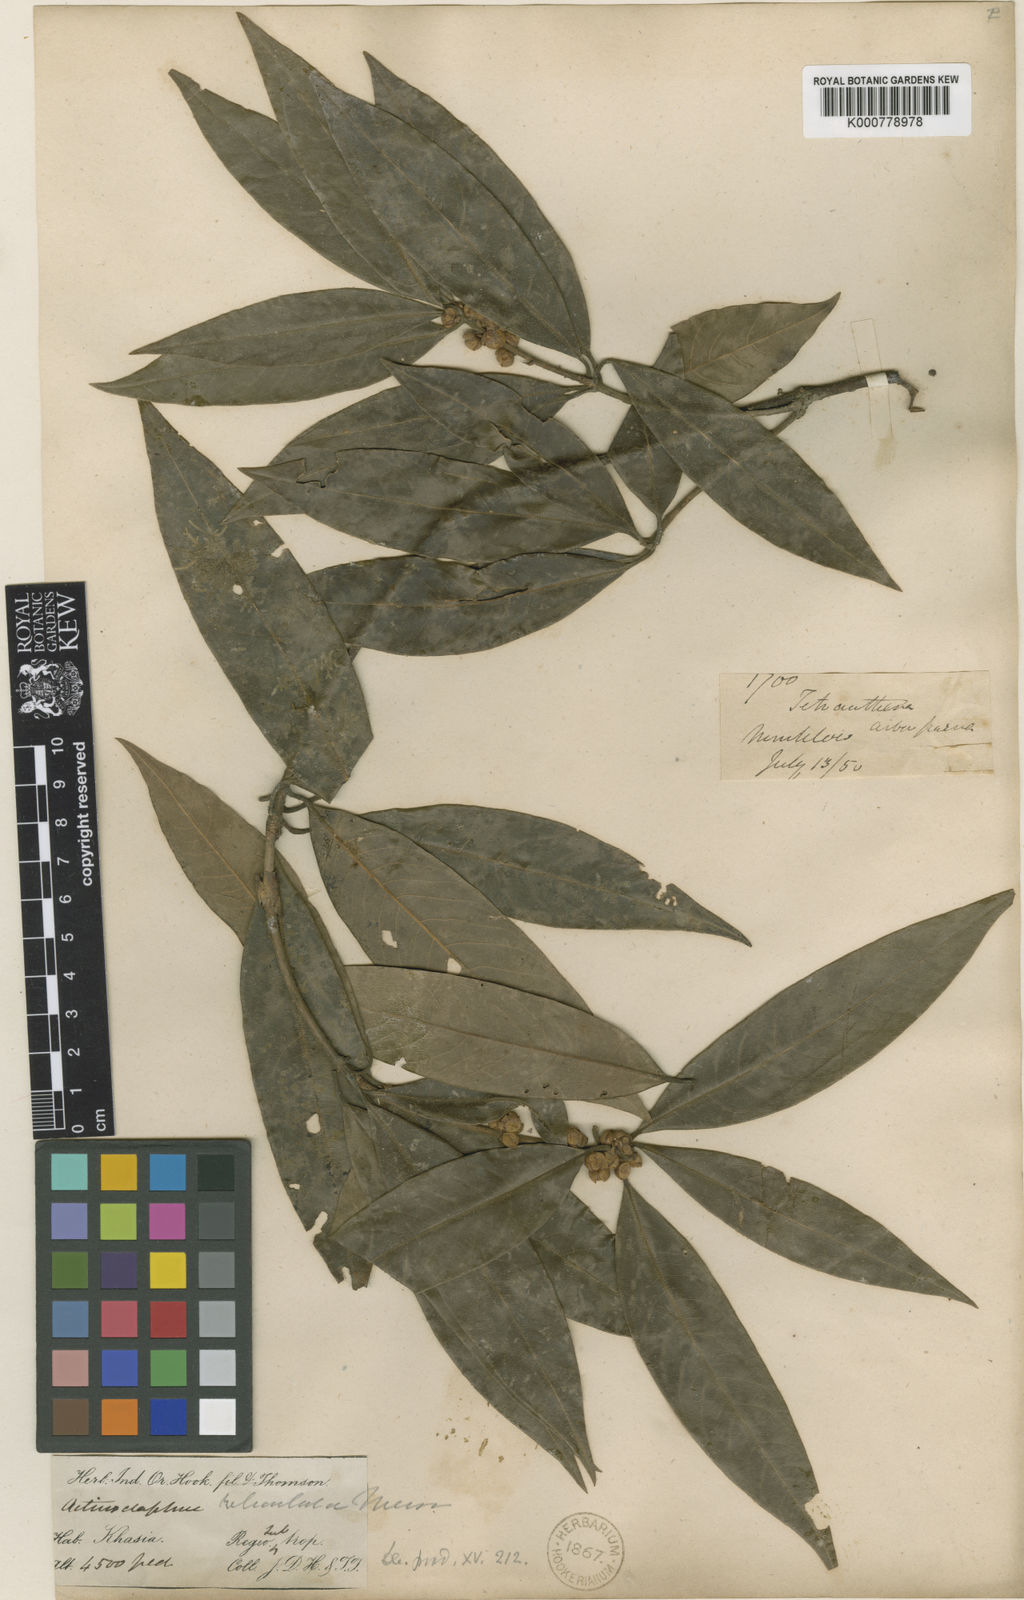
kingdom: Plantae
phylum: Tracheophyta
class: Magnoliopsida
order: Laurales
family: Lauraceae
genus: Actinodaphne
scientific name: Actinodaphne reticulata
